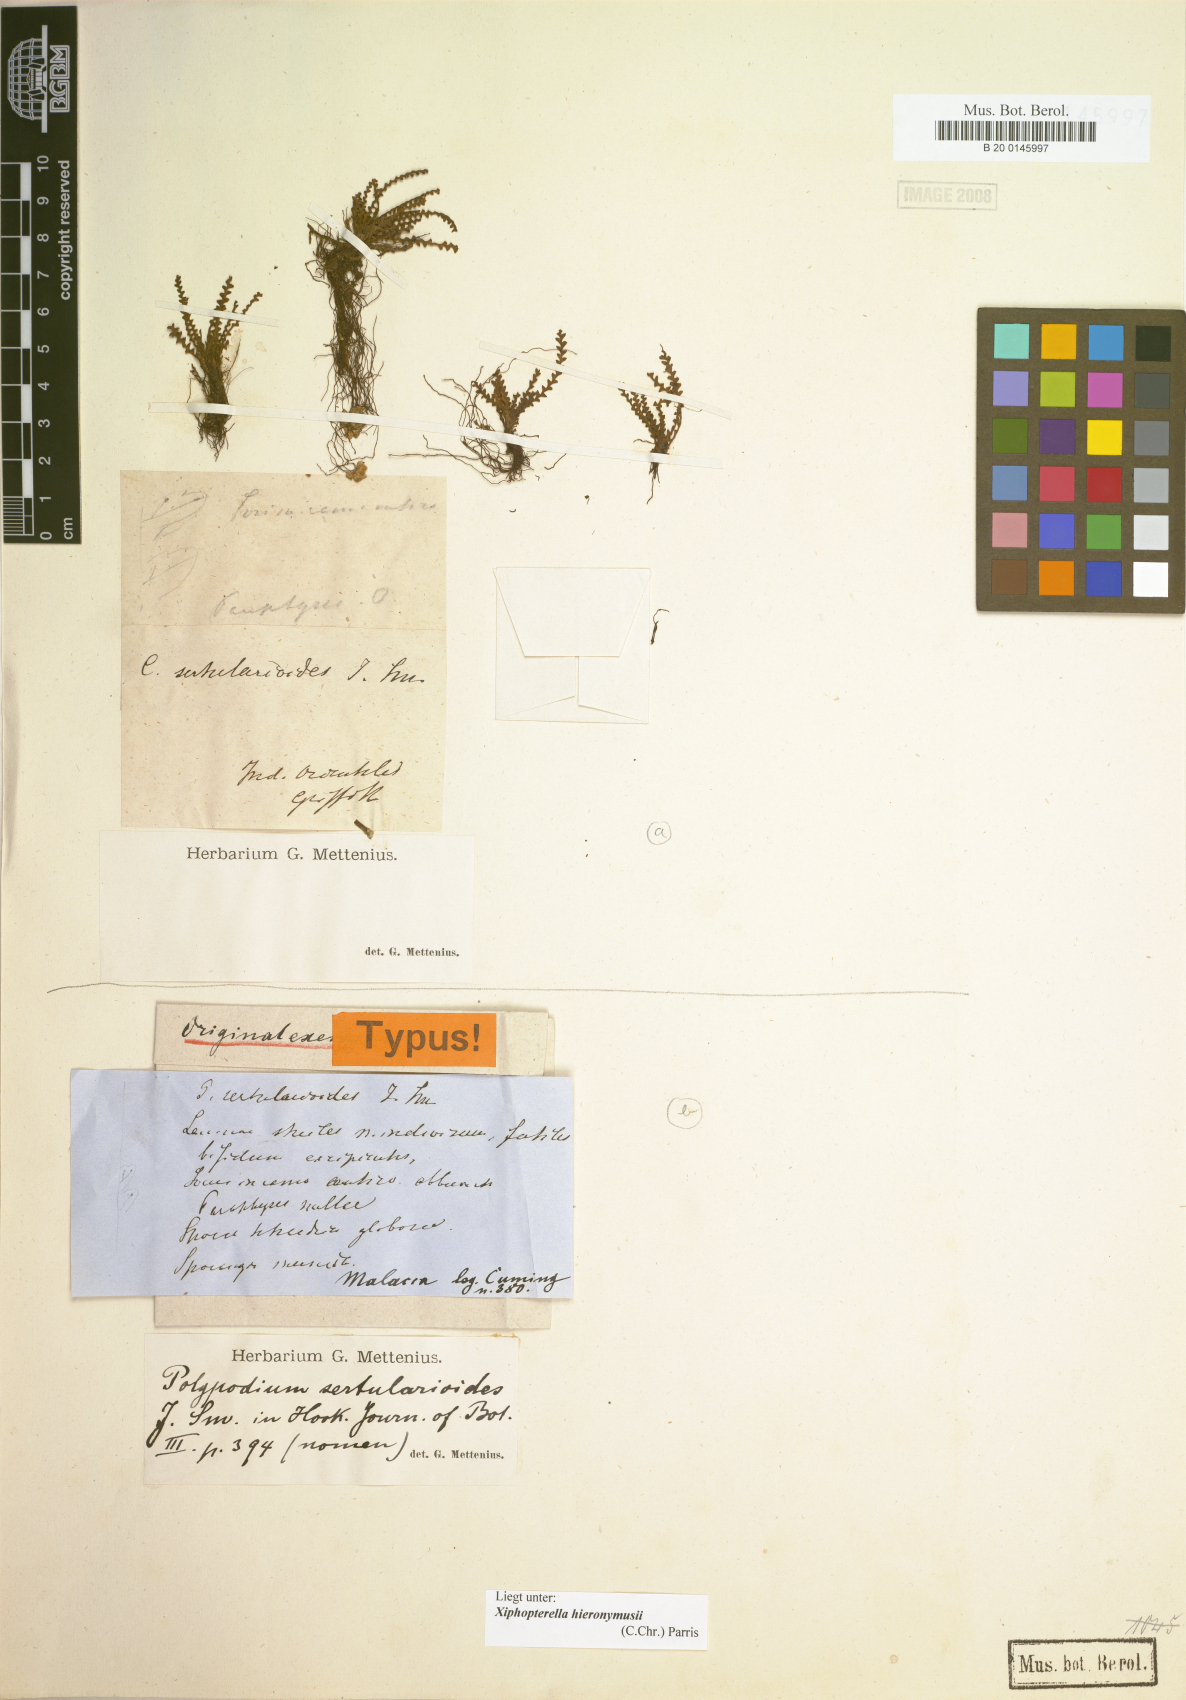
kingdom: Plantae
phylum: Tracheophyta
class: Polypodiopsida
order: Polypodiales
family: Polypodiaceae
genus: Xiphopterella
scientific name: Xiphopterella hieronymusii
